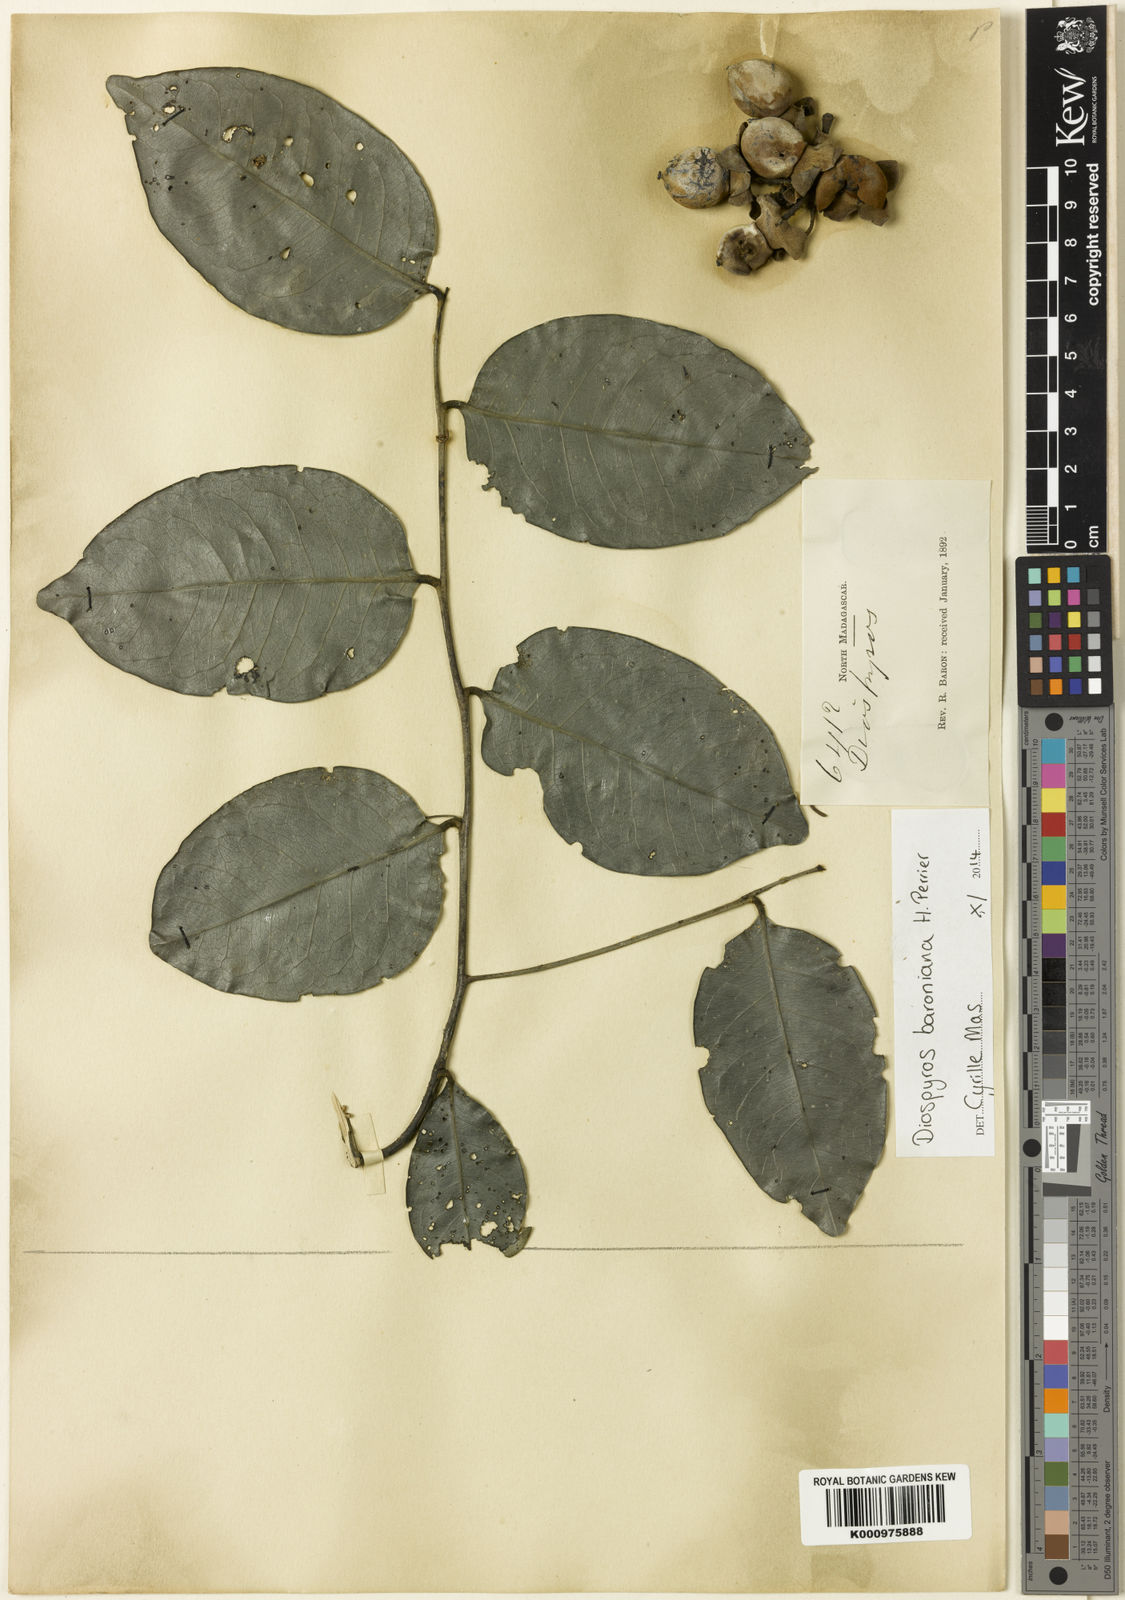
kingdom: Plantae
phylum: Tracheophyta
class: Magnoliopsida
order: Ericales
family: Ebenaceae
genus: Diospyros
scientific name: Diospyros baroniana
